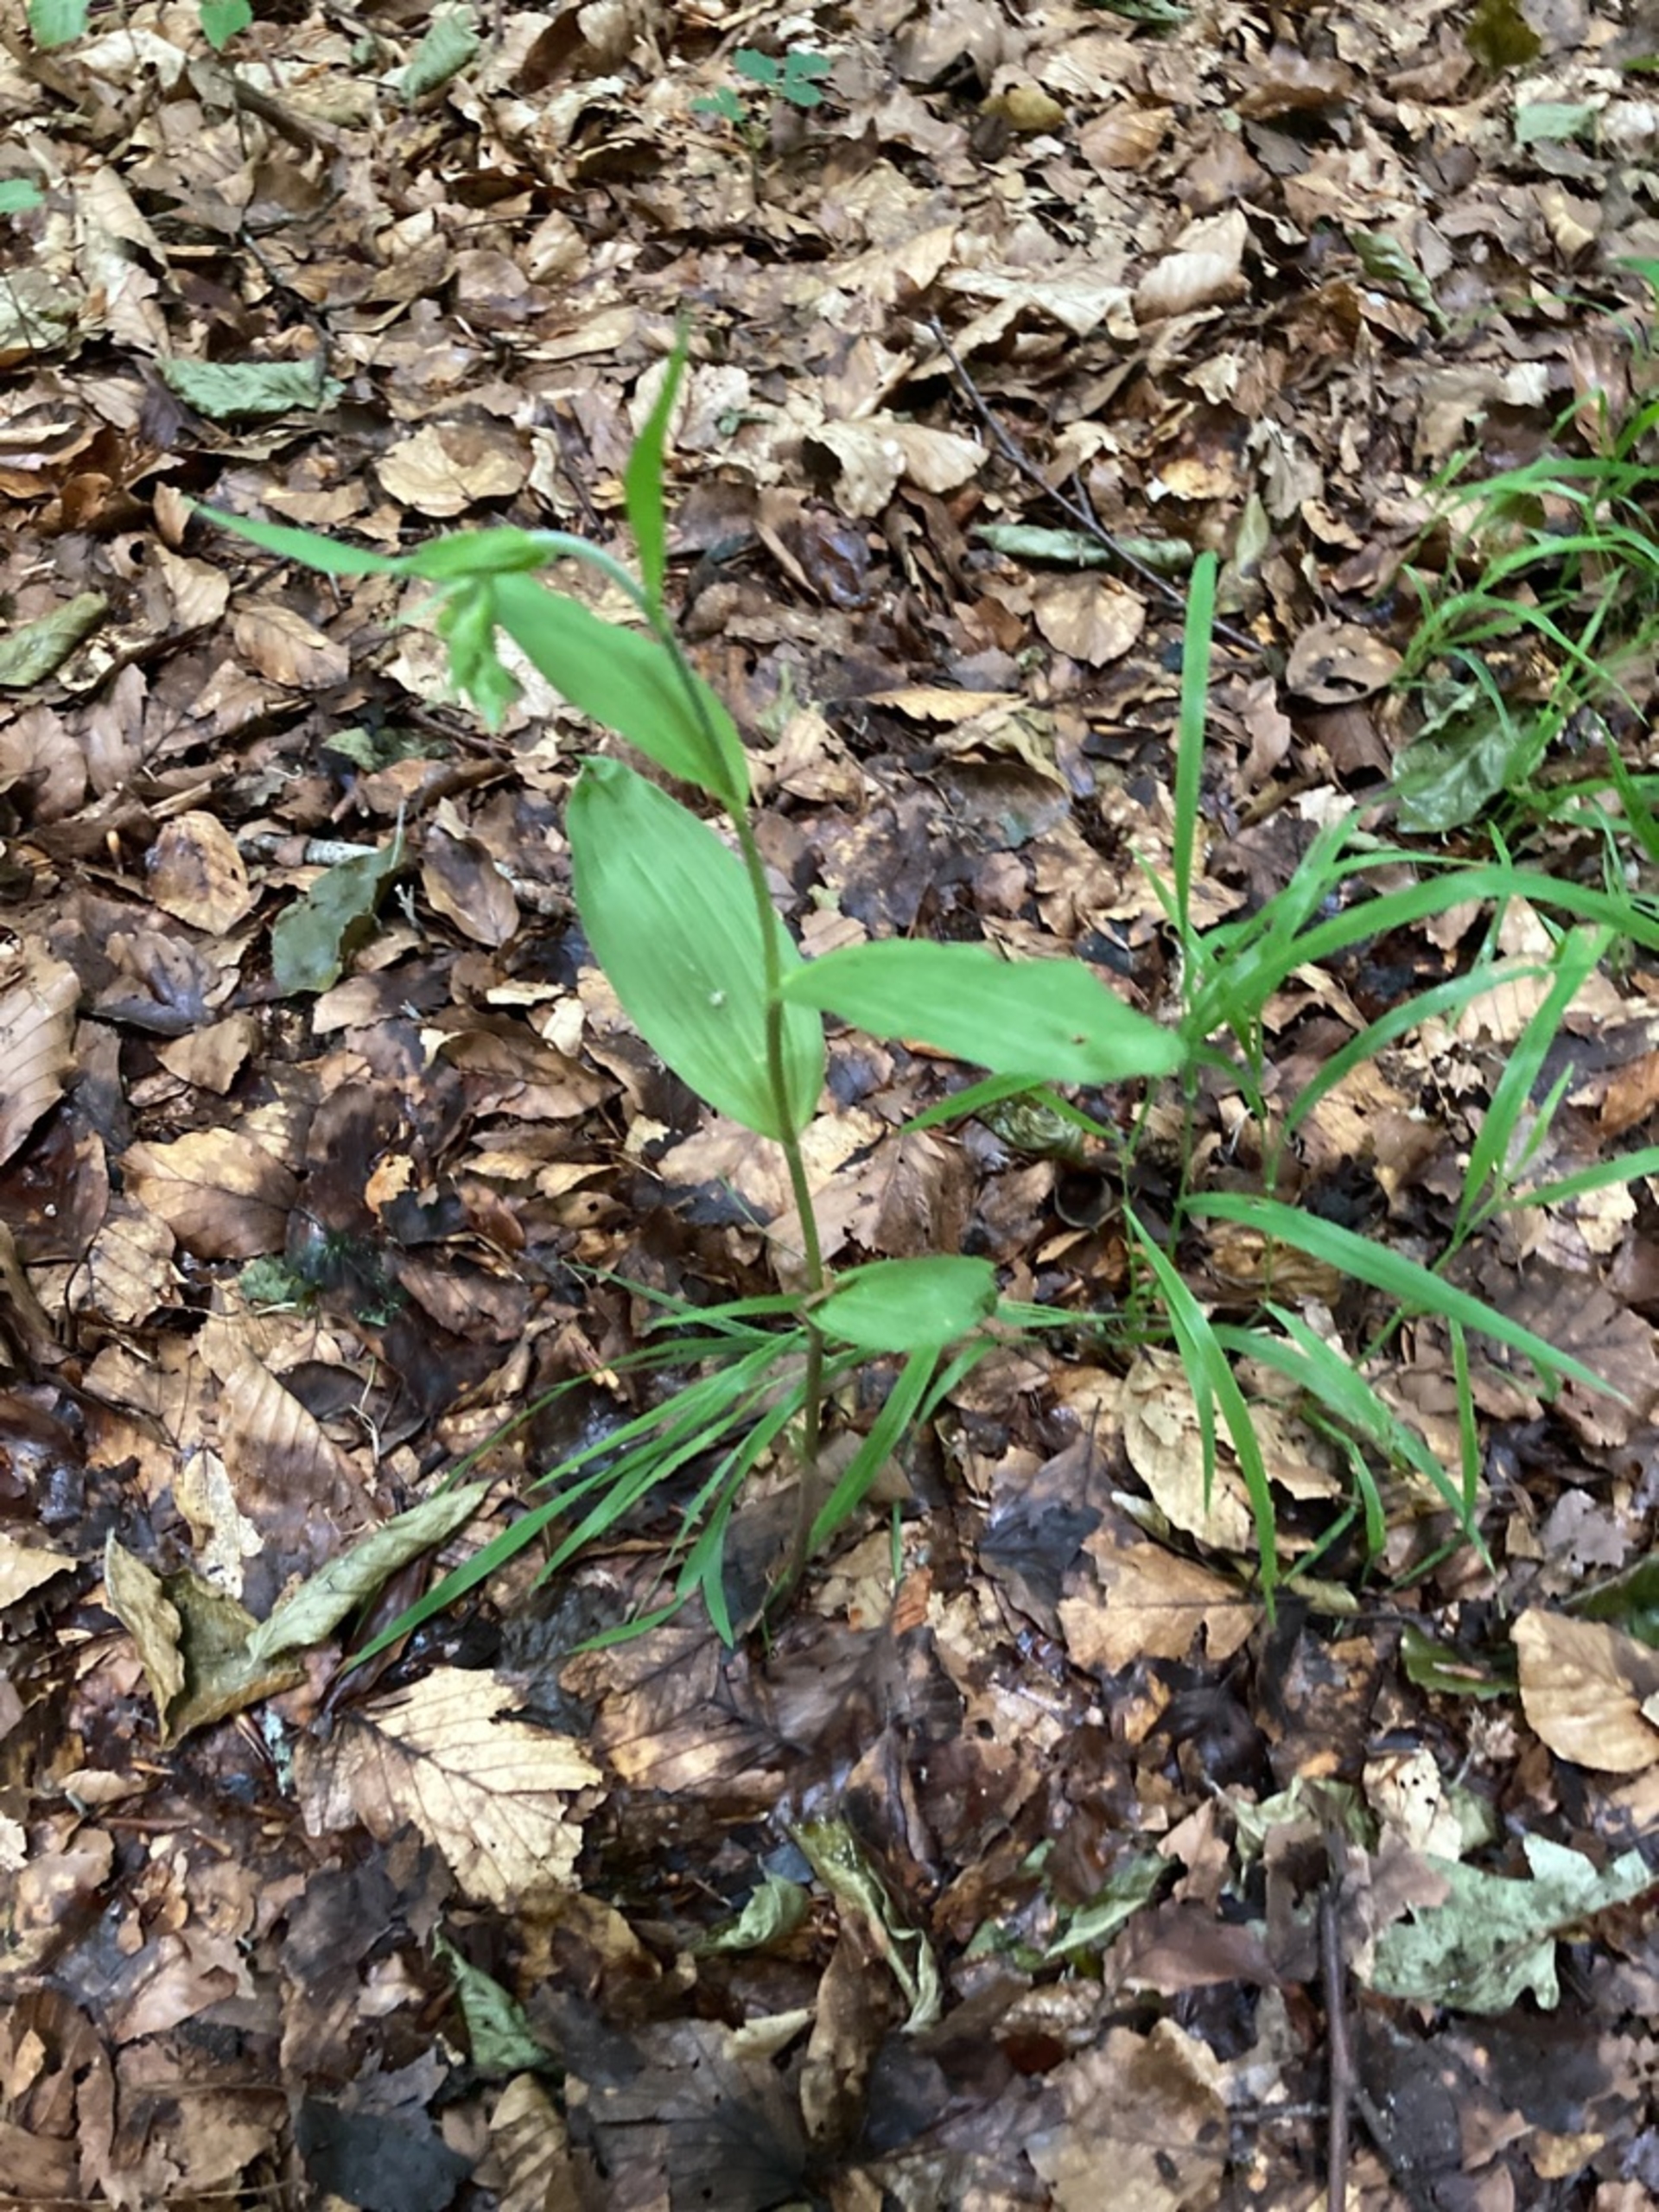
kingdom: Plantae
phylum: Tracheophyta
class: Liliopsida
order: Asparagales
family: Orchidaceae
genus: Epipactis
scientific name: Epipactis helleborine
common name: Skov-hullæbe
